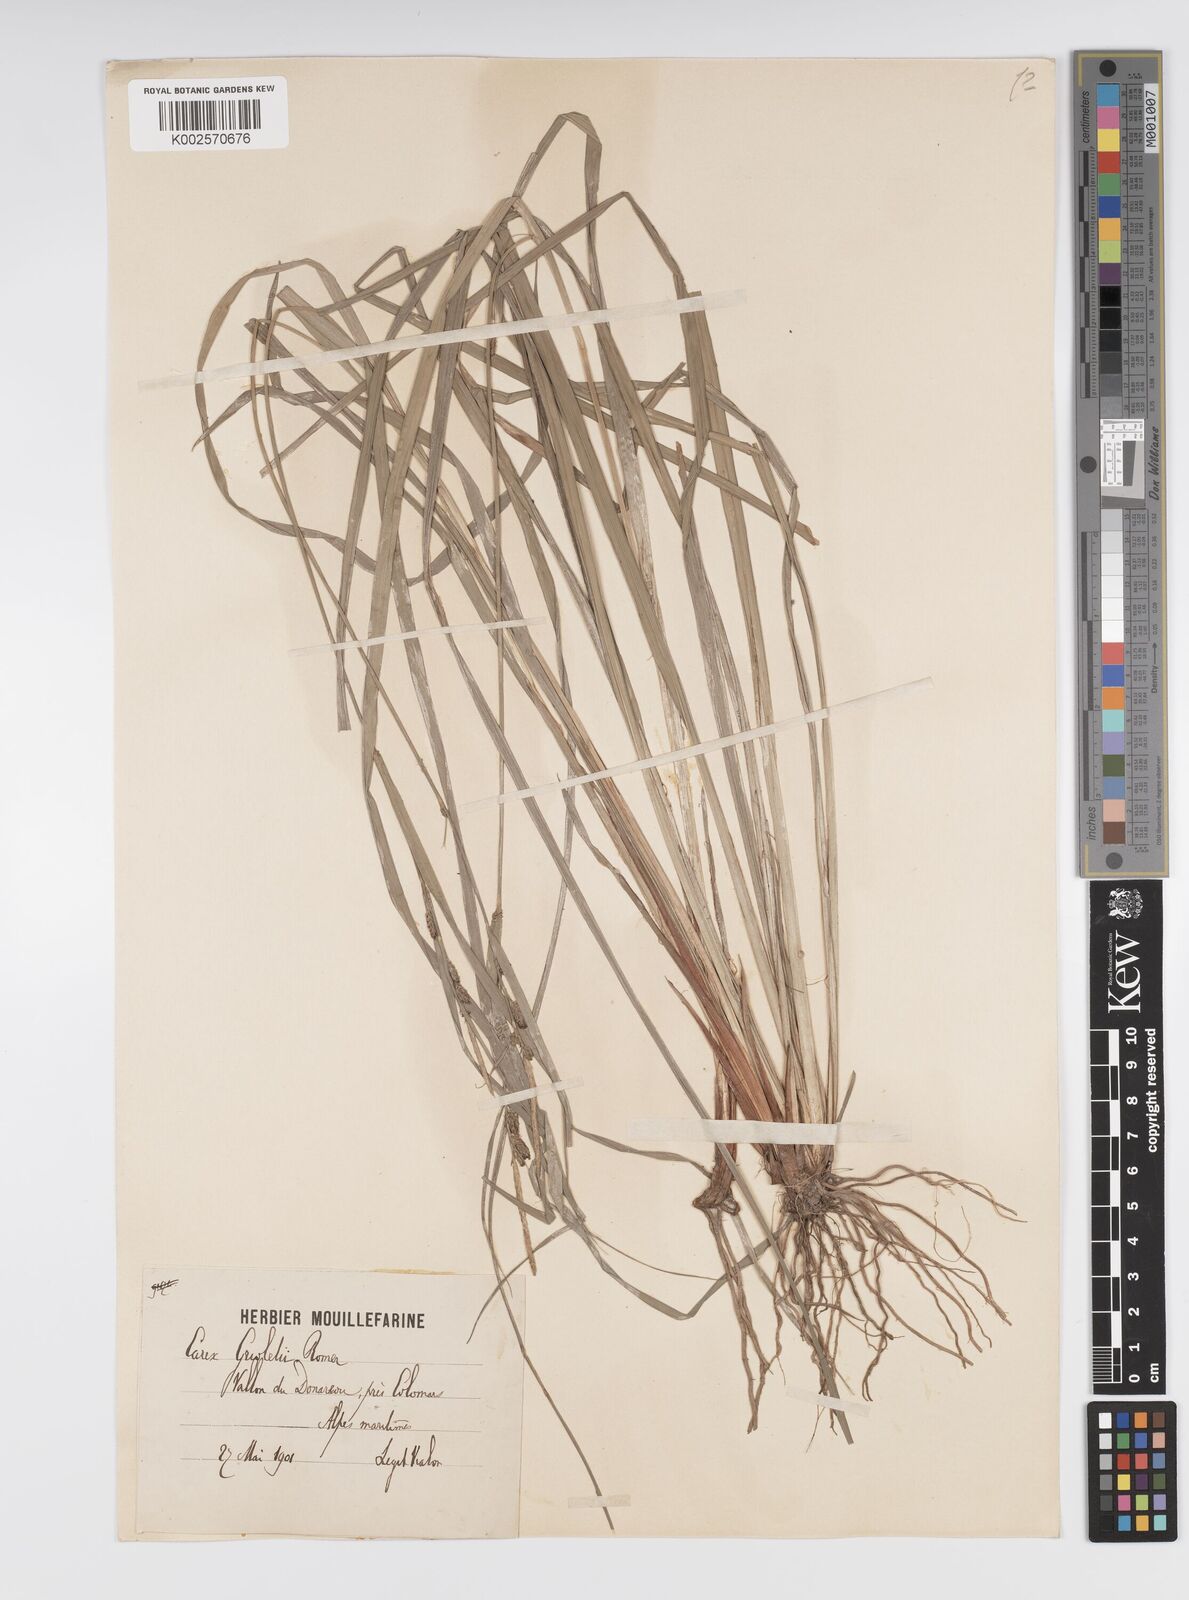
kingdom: Plantae
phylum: Tracheophyta
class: Liliopsida
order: Poales
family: Cyperaceae
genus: Carex
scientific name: Carex grioletii
